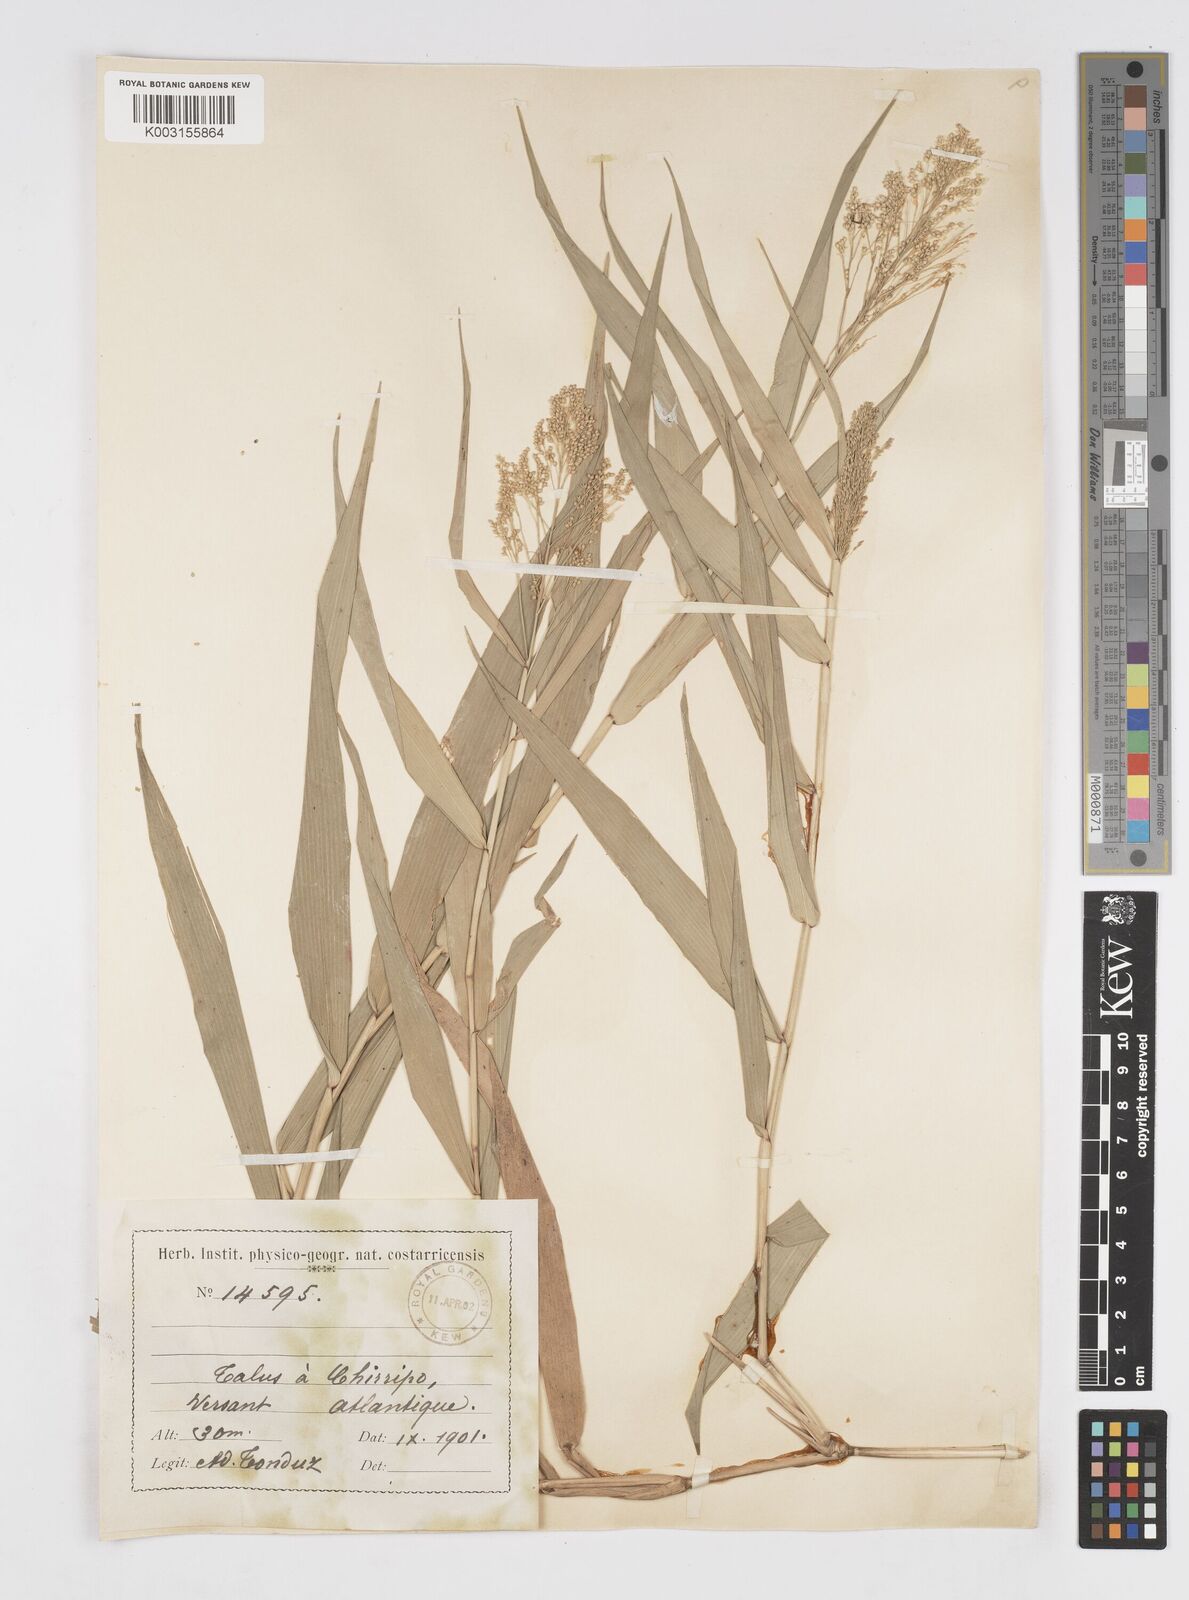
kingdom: Plantae
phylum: Tracheophyta
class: Liliopsida
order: Poales
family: Poaceae
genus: Isachne
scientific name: Isachne arundinacea
